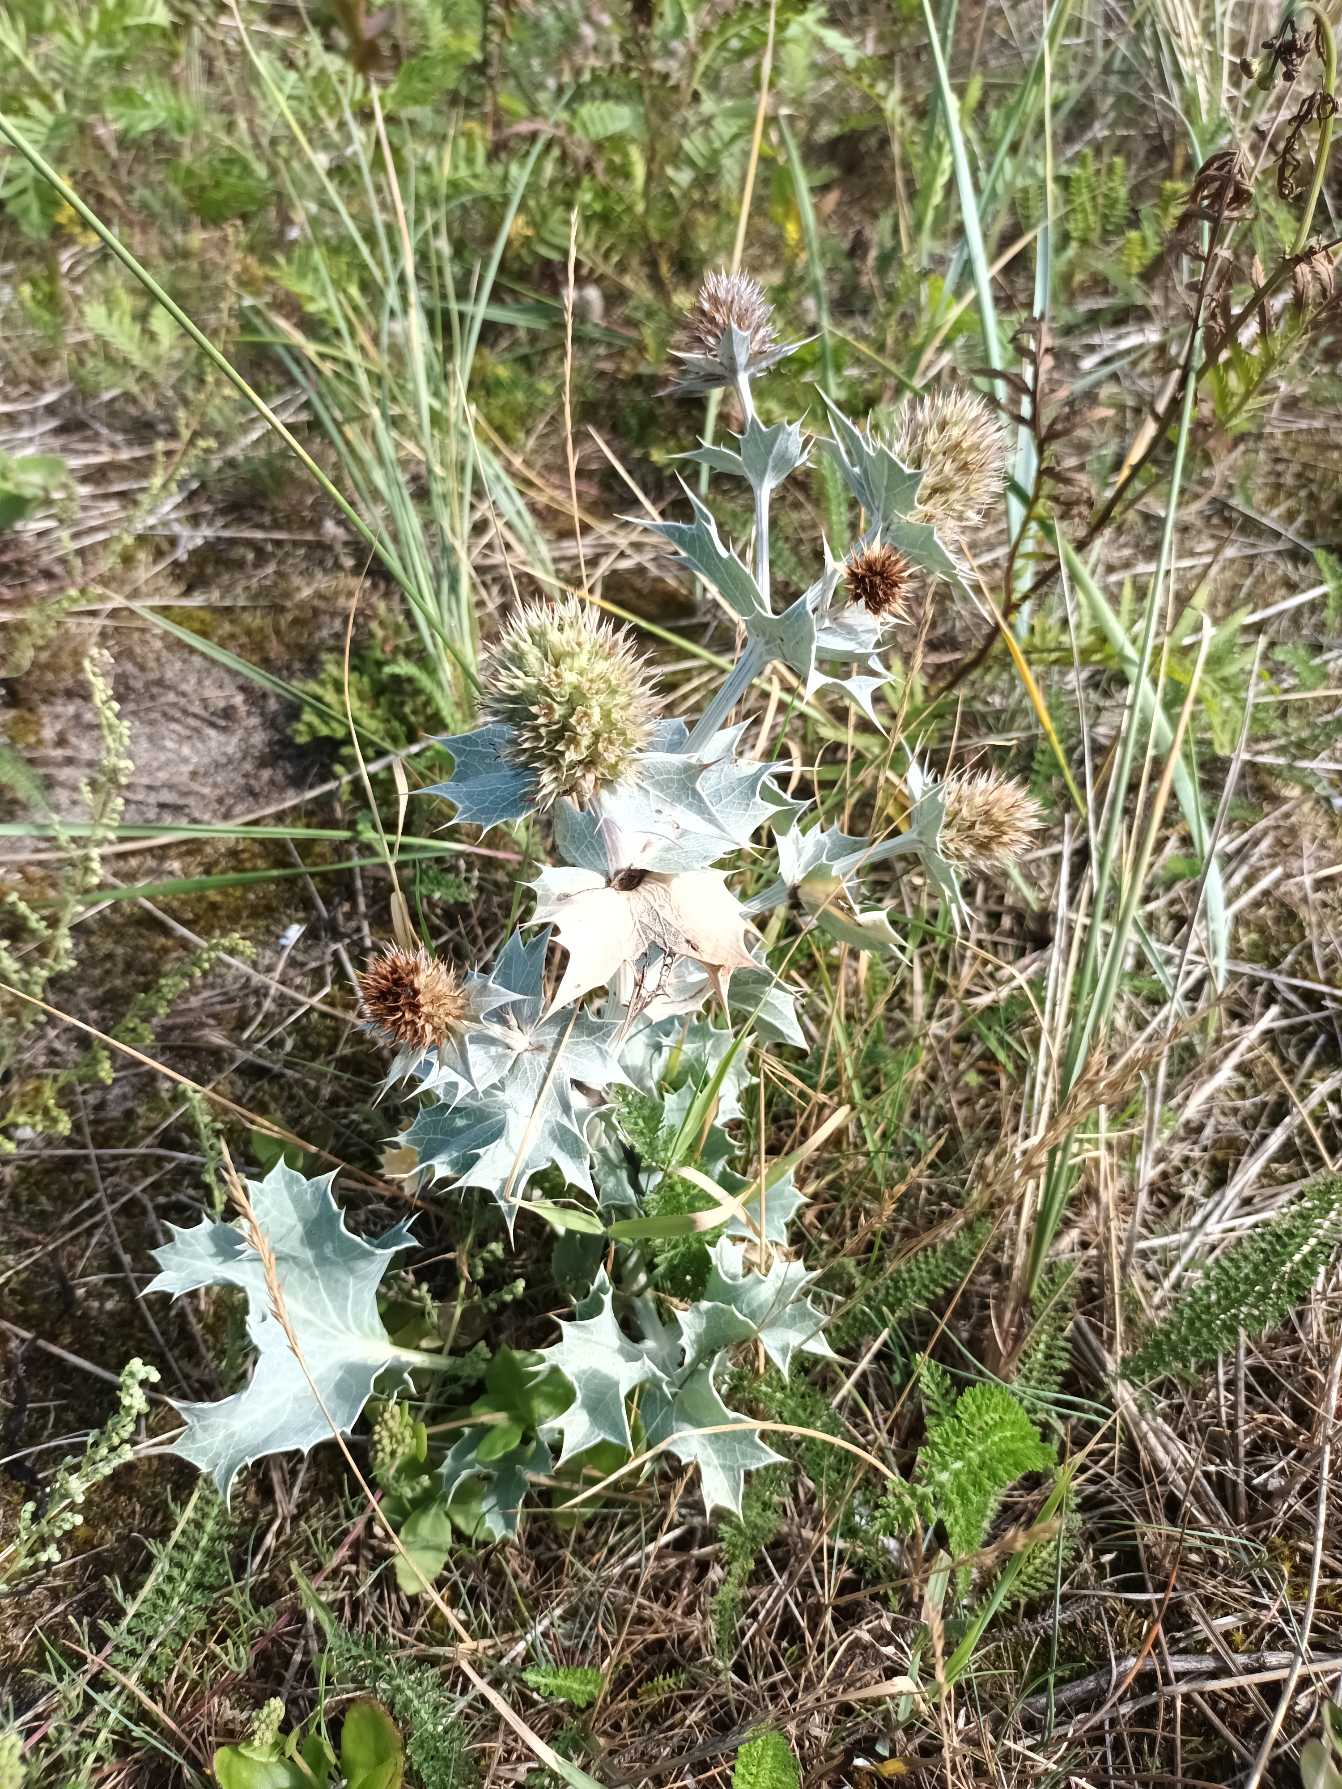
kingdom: Plantae
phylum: Tracheophyta
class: Magnoliopsida
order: Apiales
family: Apiaceae
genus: Eryngium
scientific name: Eryngium maritimum
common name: Strand-mandstro
